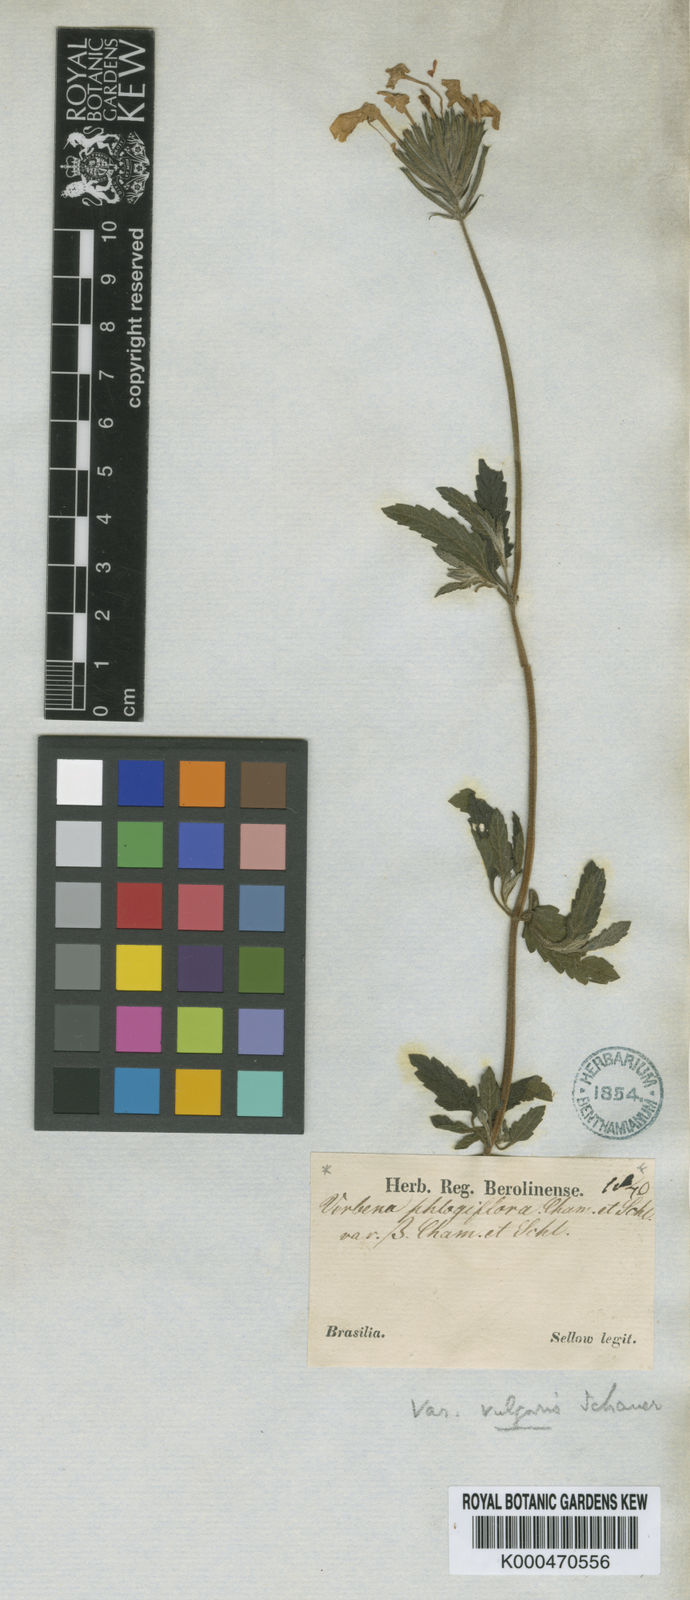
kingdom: Plantae
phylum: Tracheophyta
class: Magnoliopsida
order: Lamiales
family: Verbenaceae
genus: Verbena
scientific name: Verbena phlogiflora
